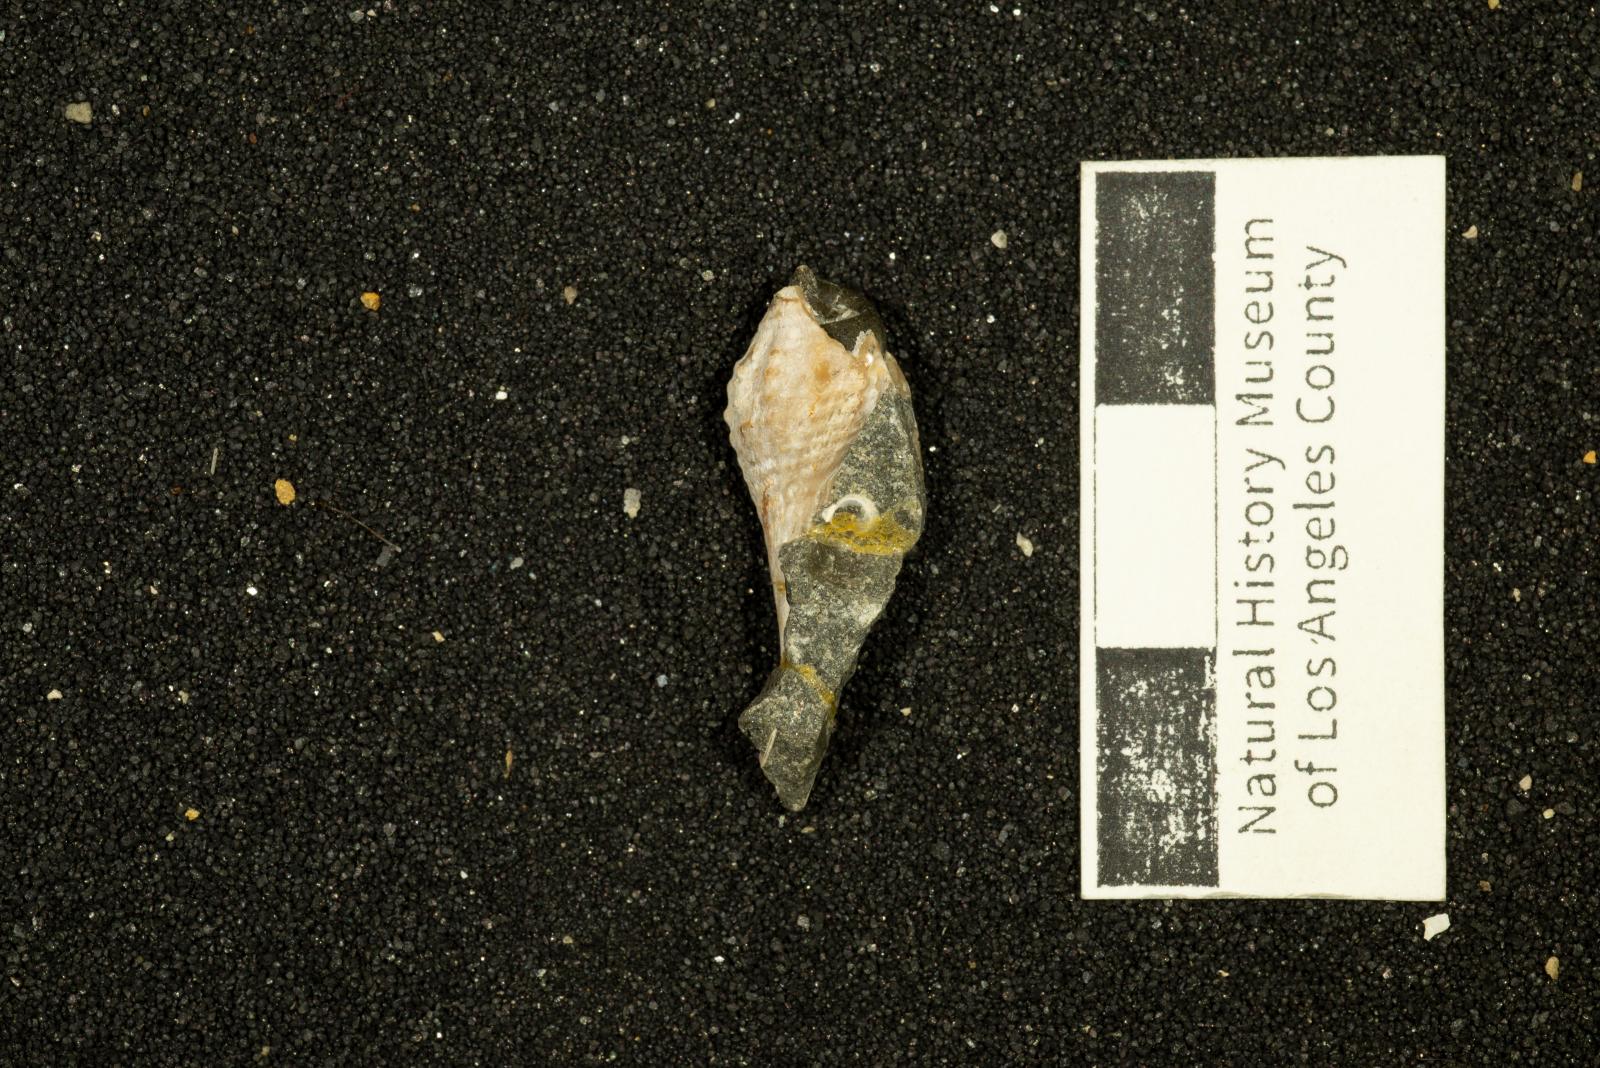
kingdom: Animalia
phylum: Mollusca
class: Gastropoda
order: Neogastropoda
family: Pholidotomidae
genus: Volutoderma
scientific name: Volutoderma querna
